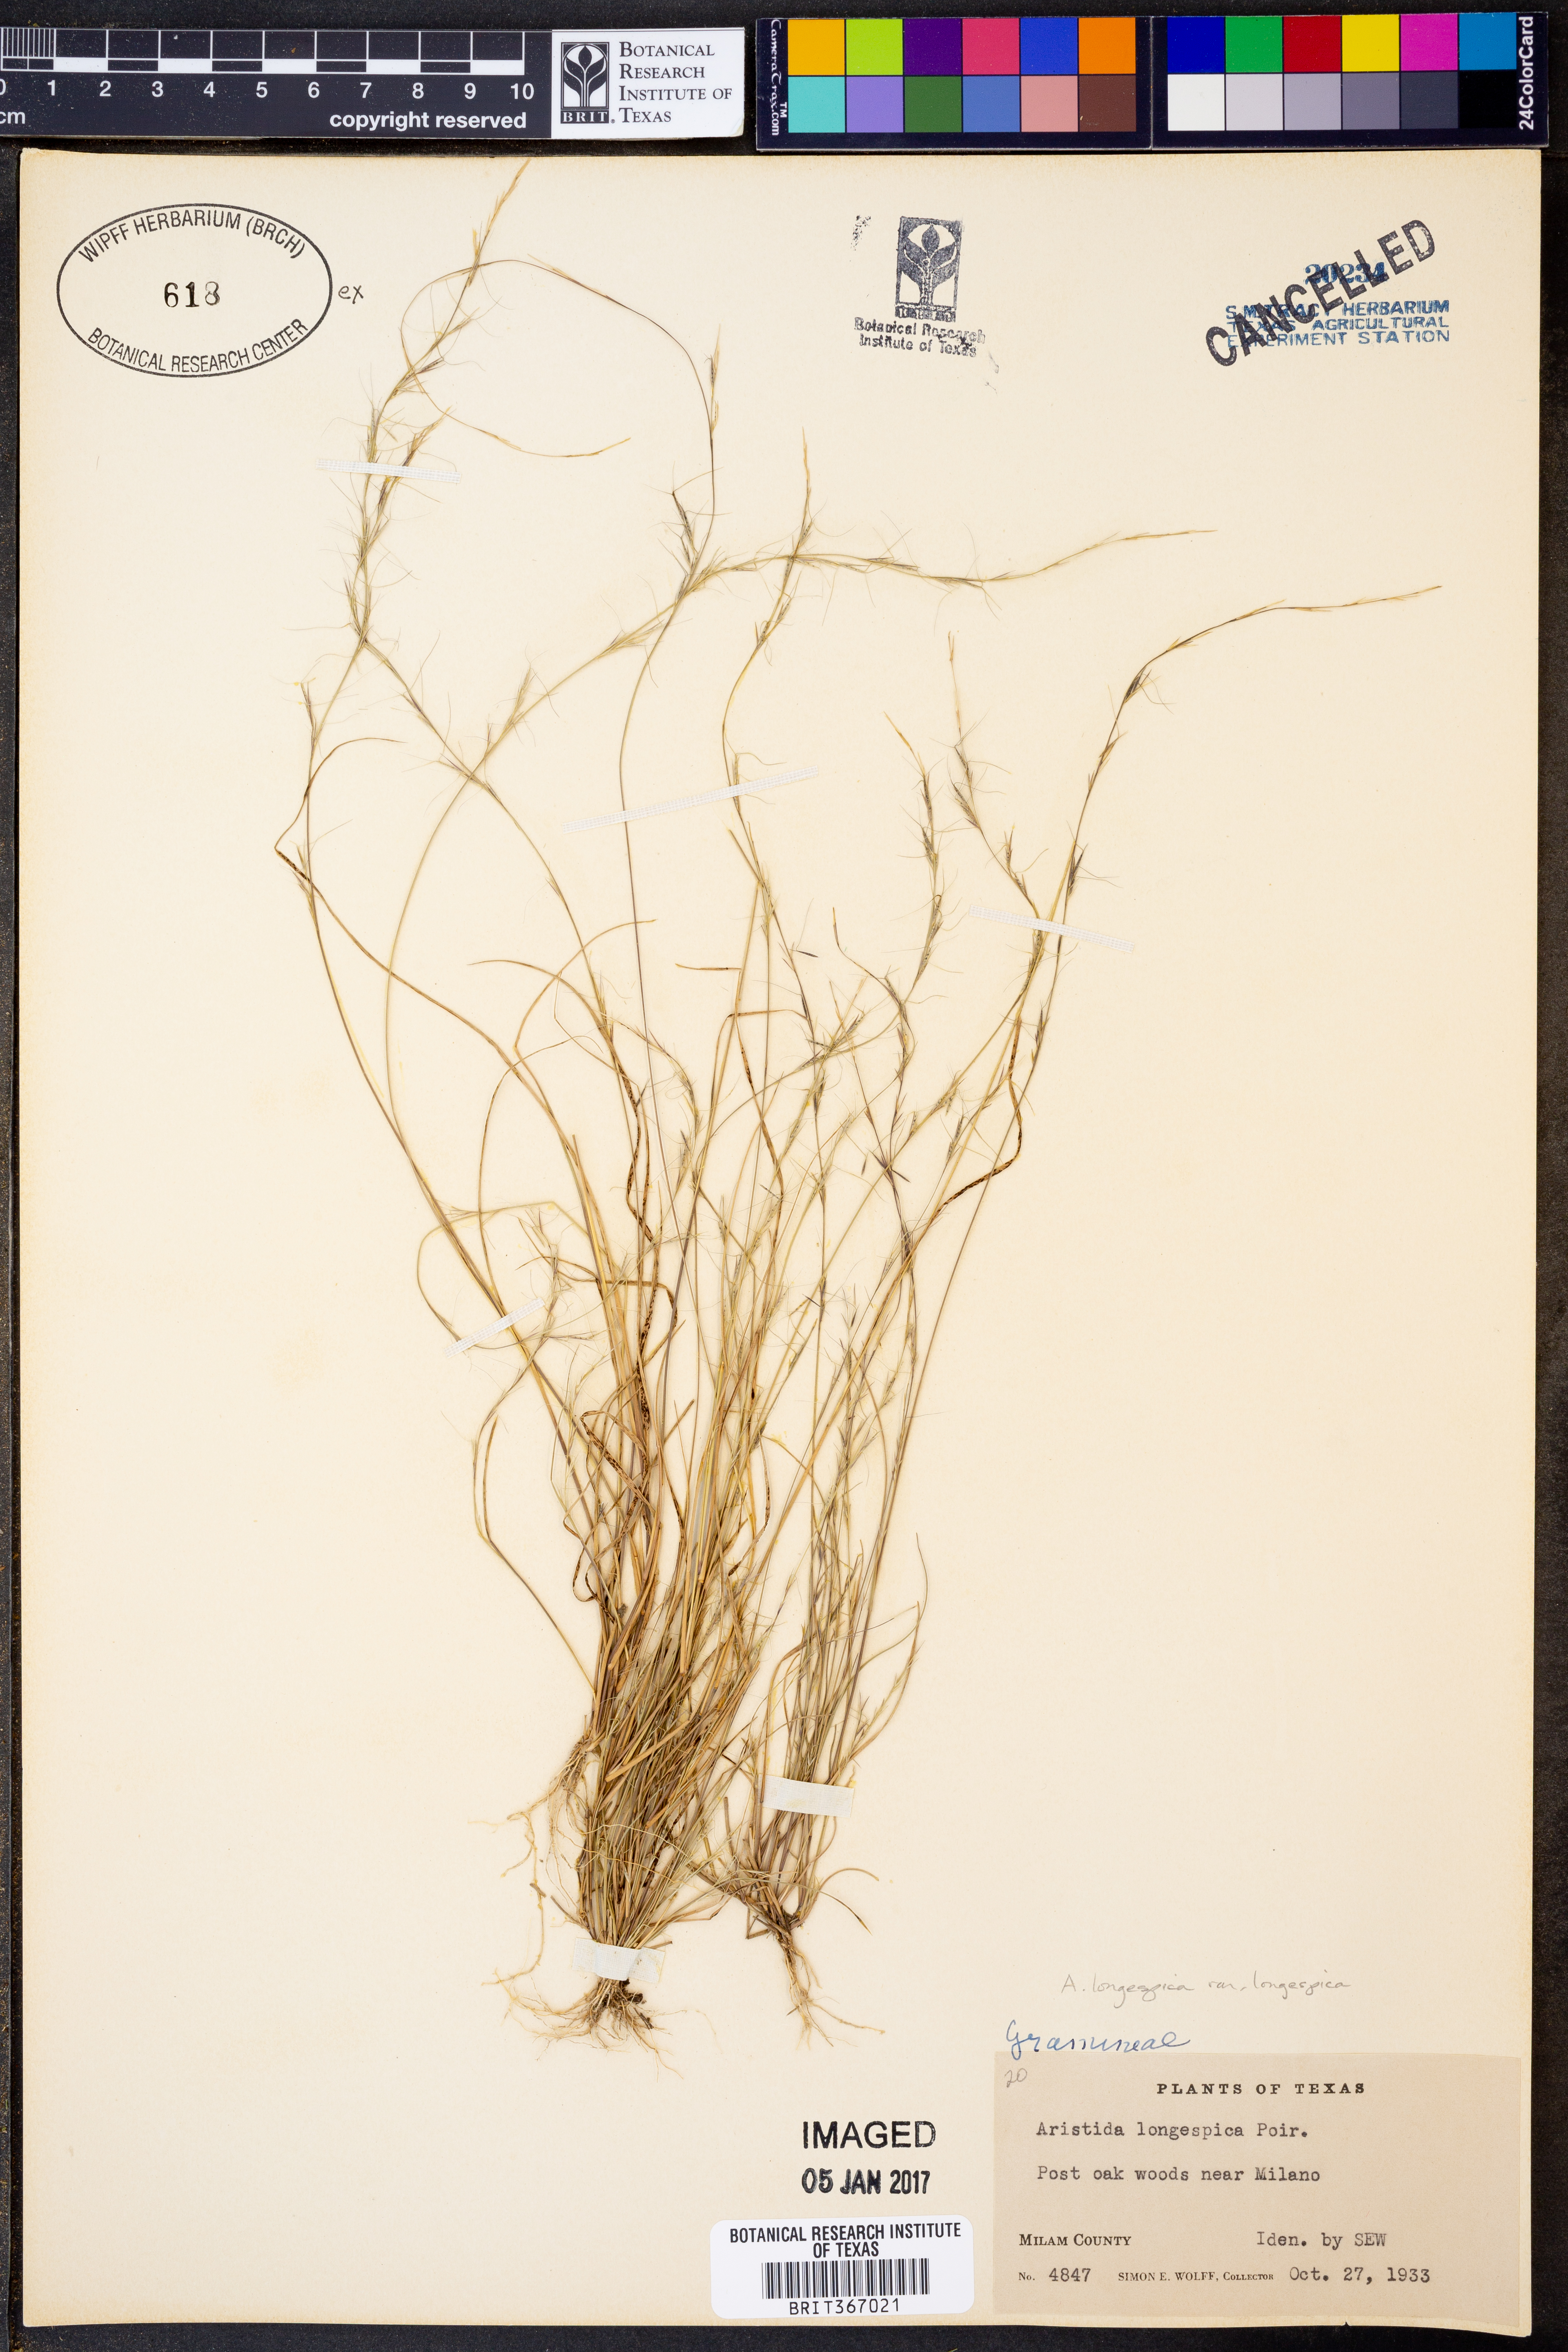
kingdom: Plantae
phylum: Tracheophyta
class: Liliopsida
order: Poales
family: Poaceae
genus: Aristida
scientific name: Aristida longespica
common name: Long-spiked triple-awned grass
